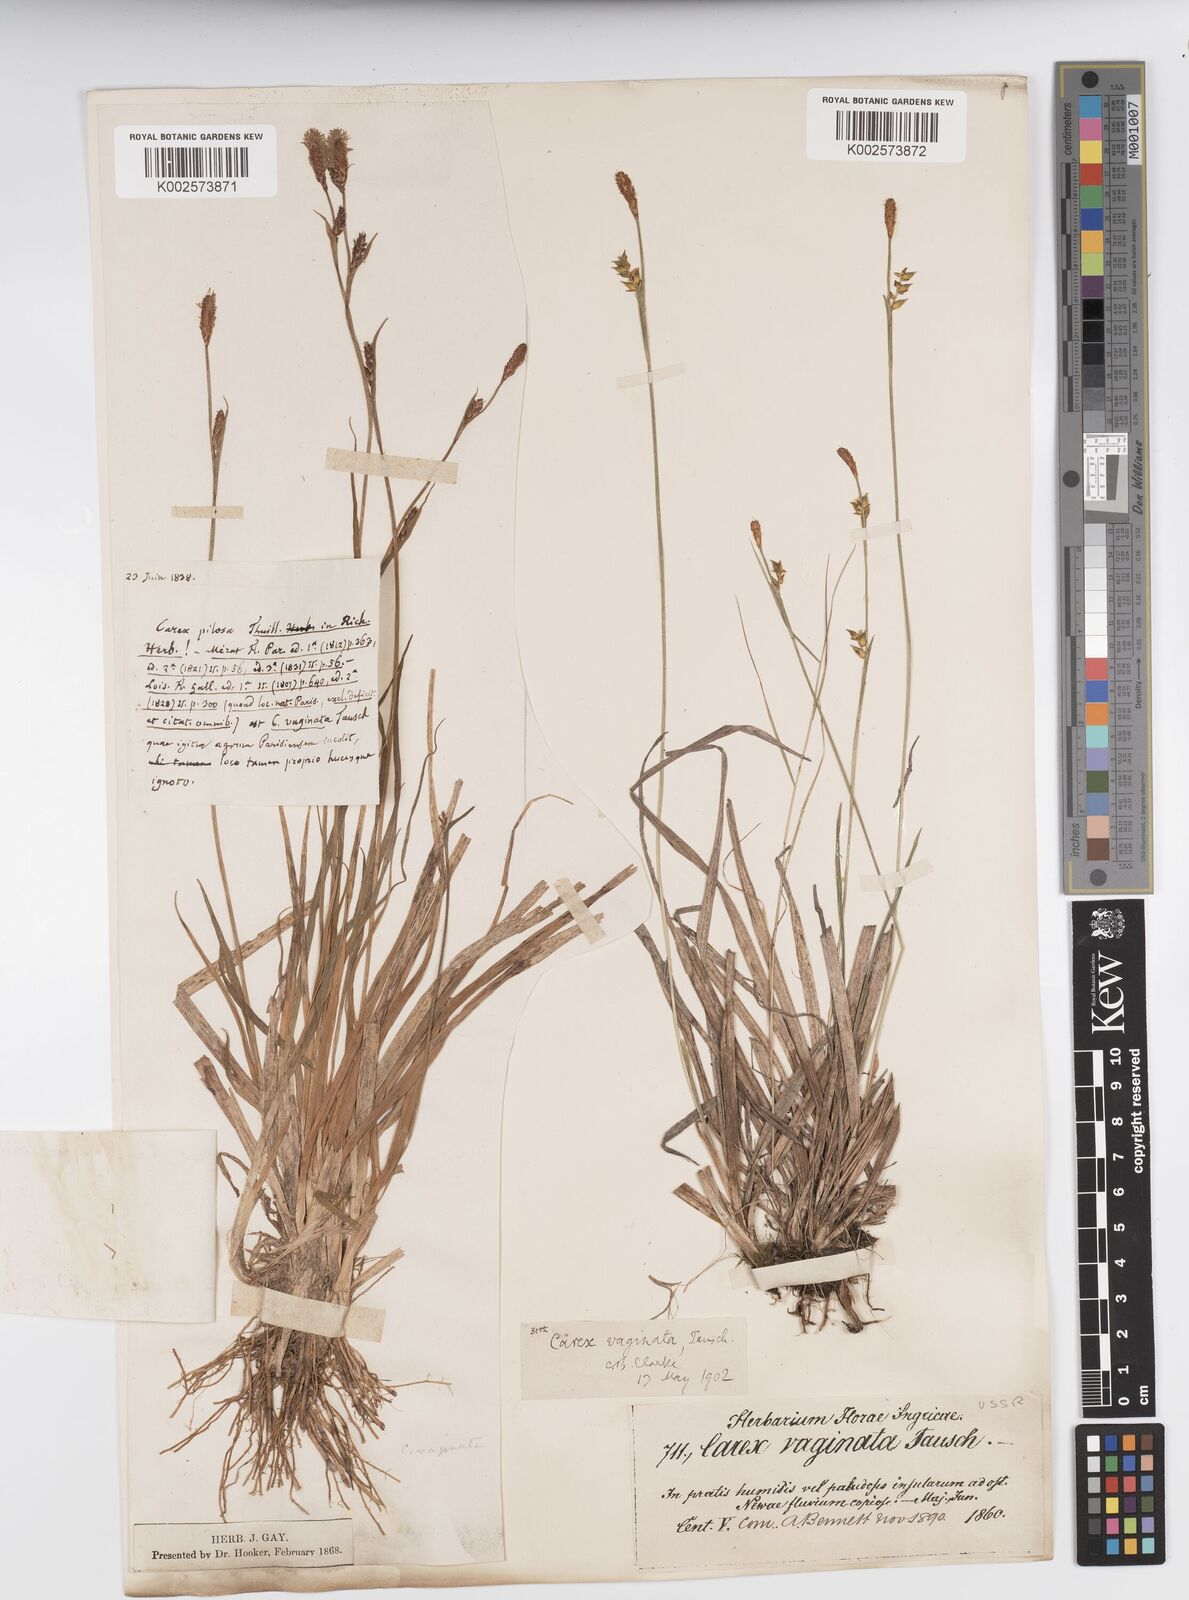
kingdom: Plantae
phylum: Tracheophyta
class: Liliopsida
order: Poales
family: Cyperaceae
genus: Carex
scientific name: Carex vaginata
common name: Sheathed sedge
